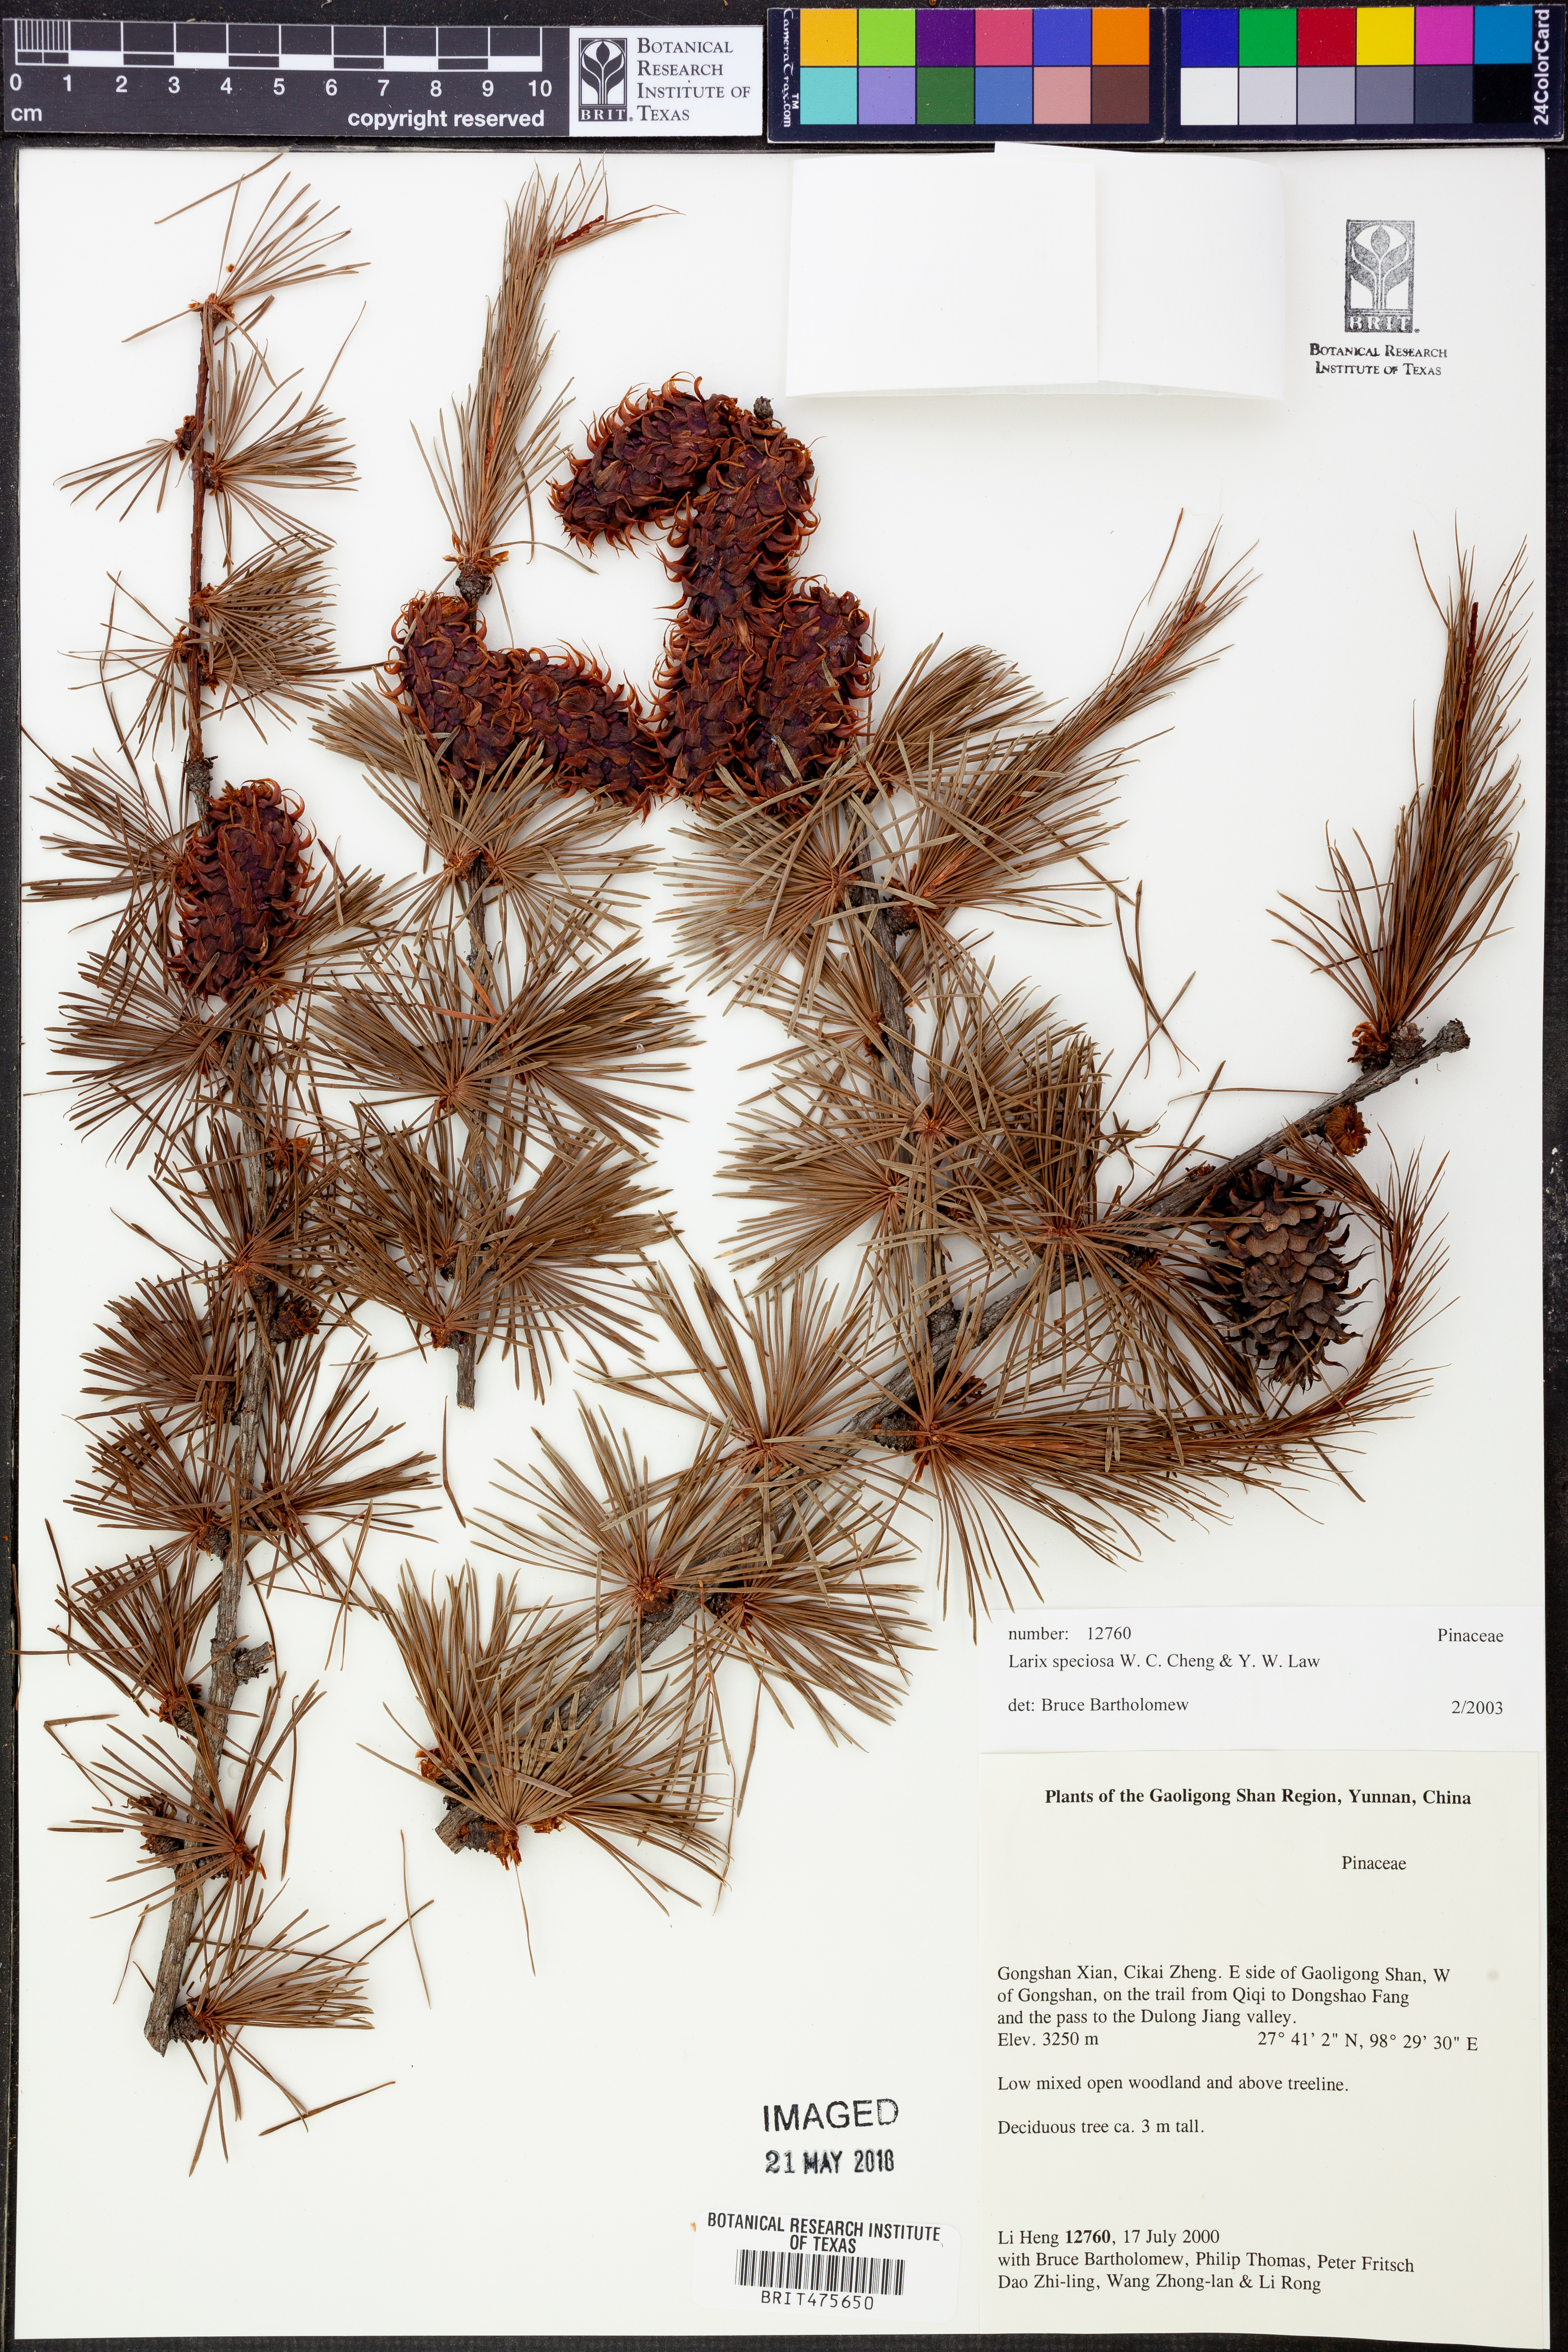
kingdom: Plantae
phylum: Tracheophyta
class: Pinopsida
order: Pinales
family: Pinaceae
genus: Larix
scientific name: Larix griffithii
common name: Sikkim larch
